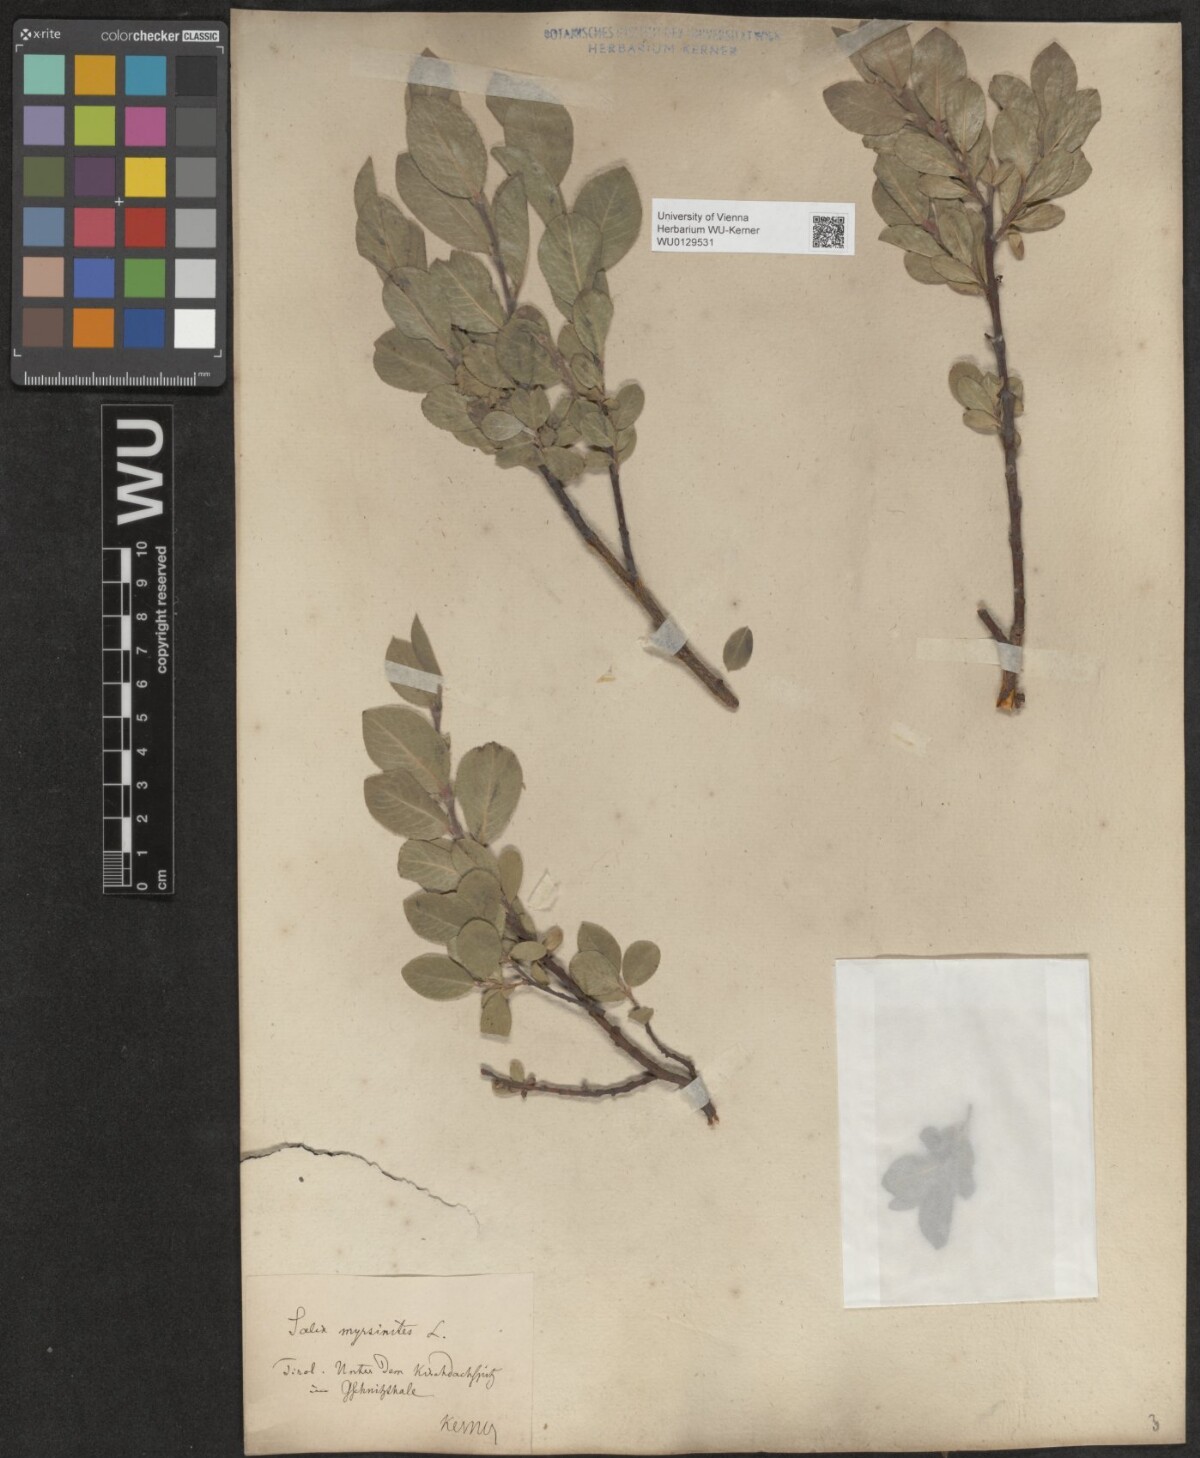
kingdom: Plantae
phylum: Tracheophyta
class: Magnoliopsida
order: Malpighiales
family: Salicaceae
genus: Salix
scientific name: Salix breviserrata
